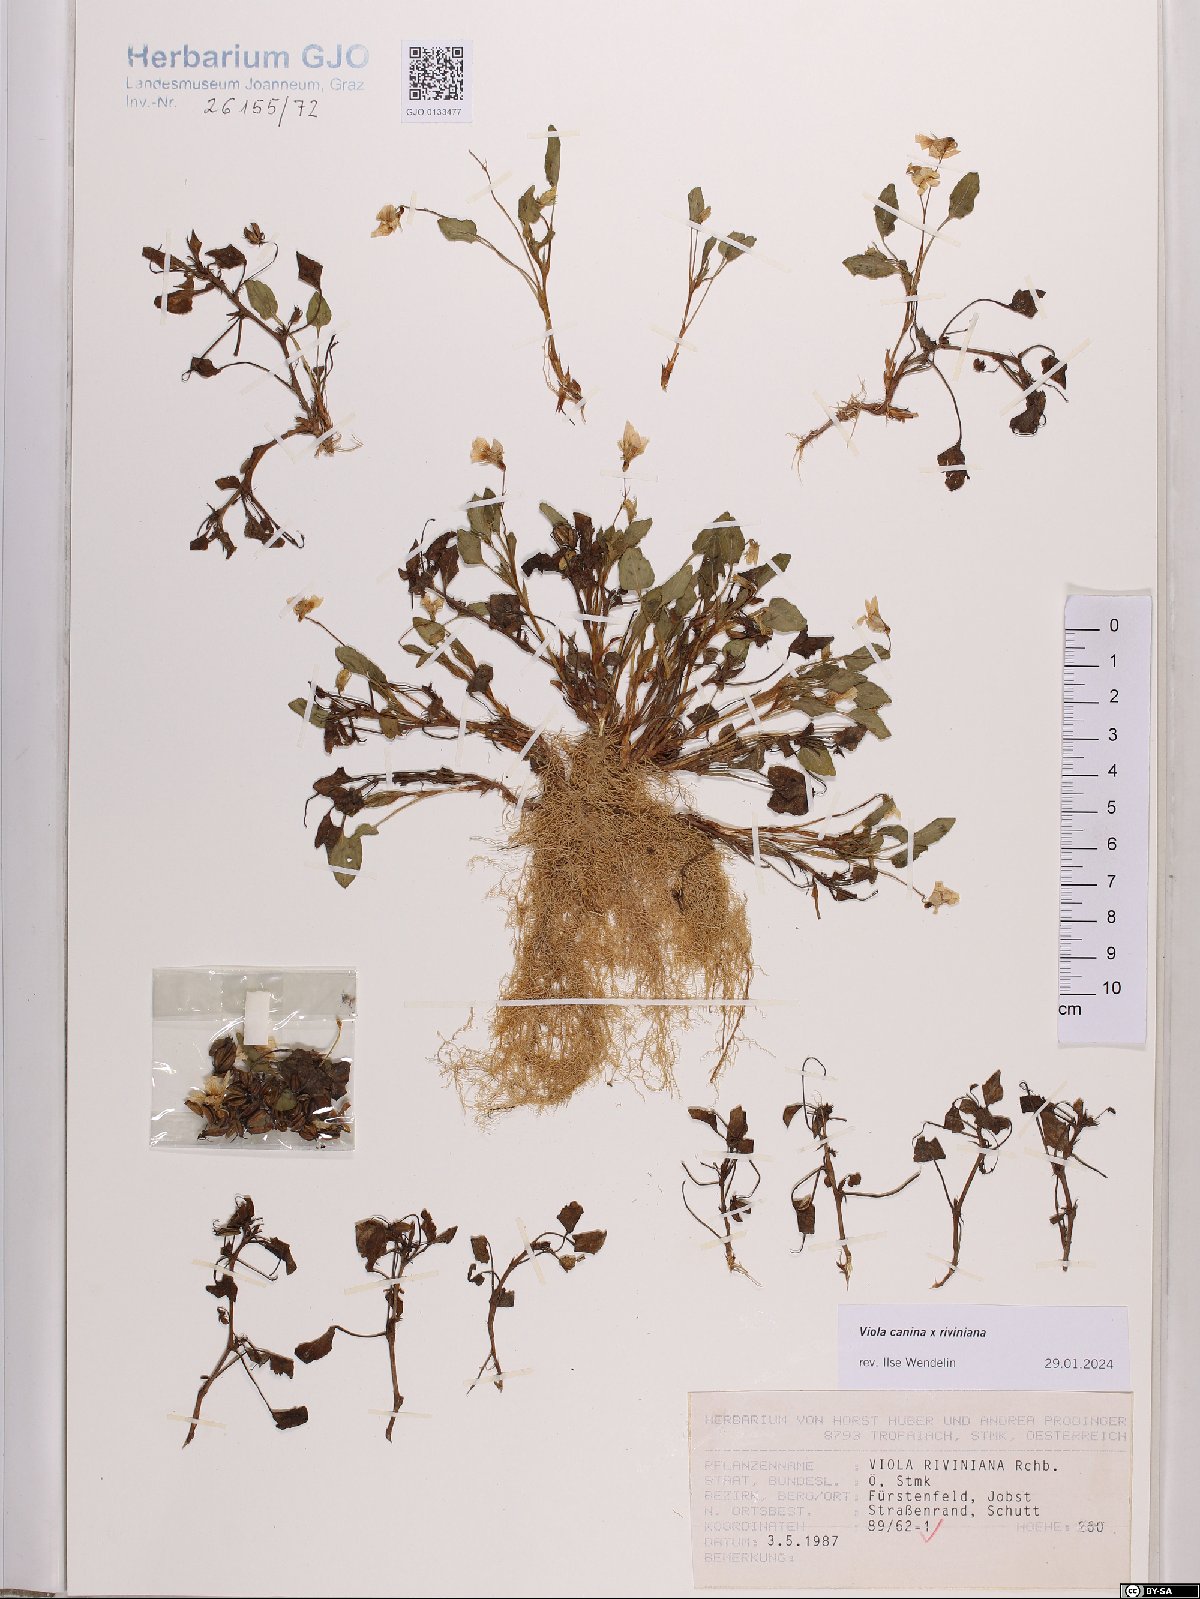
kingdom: Plantae
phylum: Tracheophyta
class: Magnoliopsida
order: Malpighiales
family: Violaceae
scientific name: Violaceae
